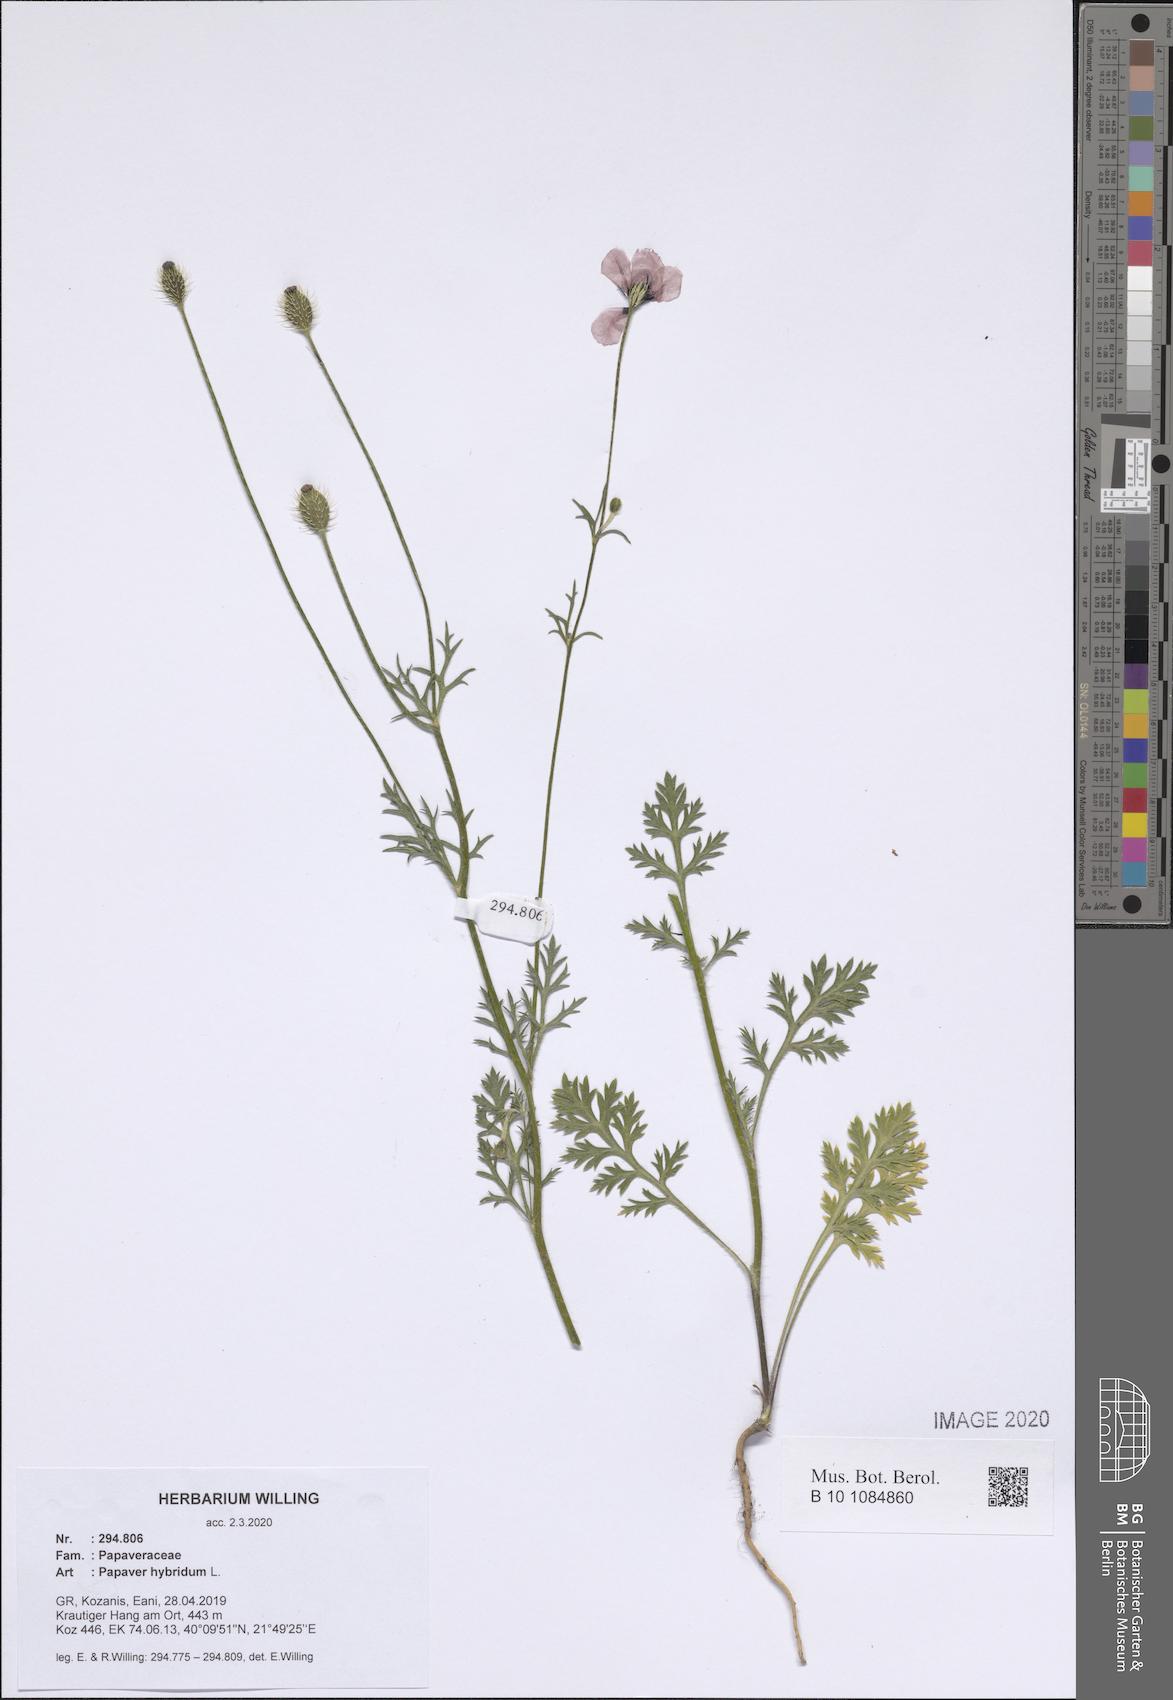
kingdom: Plantae
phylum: Tracheophyta
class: Magnoliopsida
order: Ranunculales
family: Papaveraceae
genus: Roemeria
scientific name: Roemeria hispida
